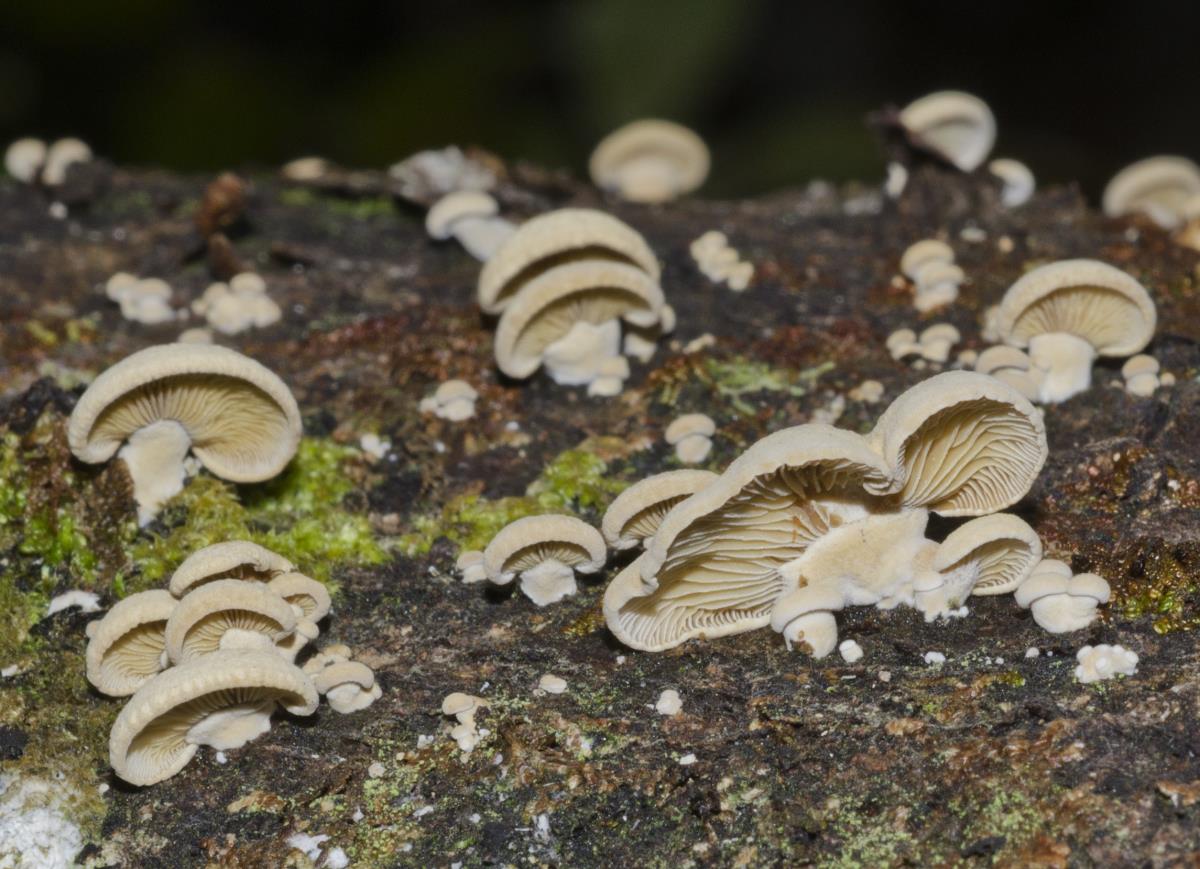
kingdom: Fungi
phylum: Basidiomycota
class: Agaricomycetes
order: Agaricales
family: Mycenaceae
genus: Panellus
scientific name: Panellus stipticus
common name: Bitter oysterling
